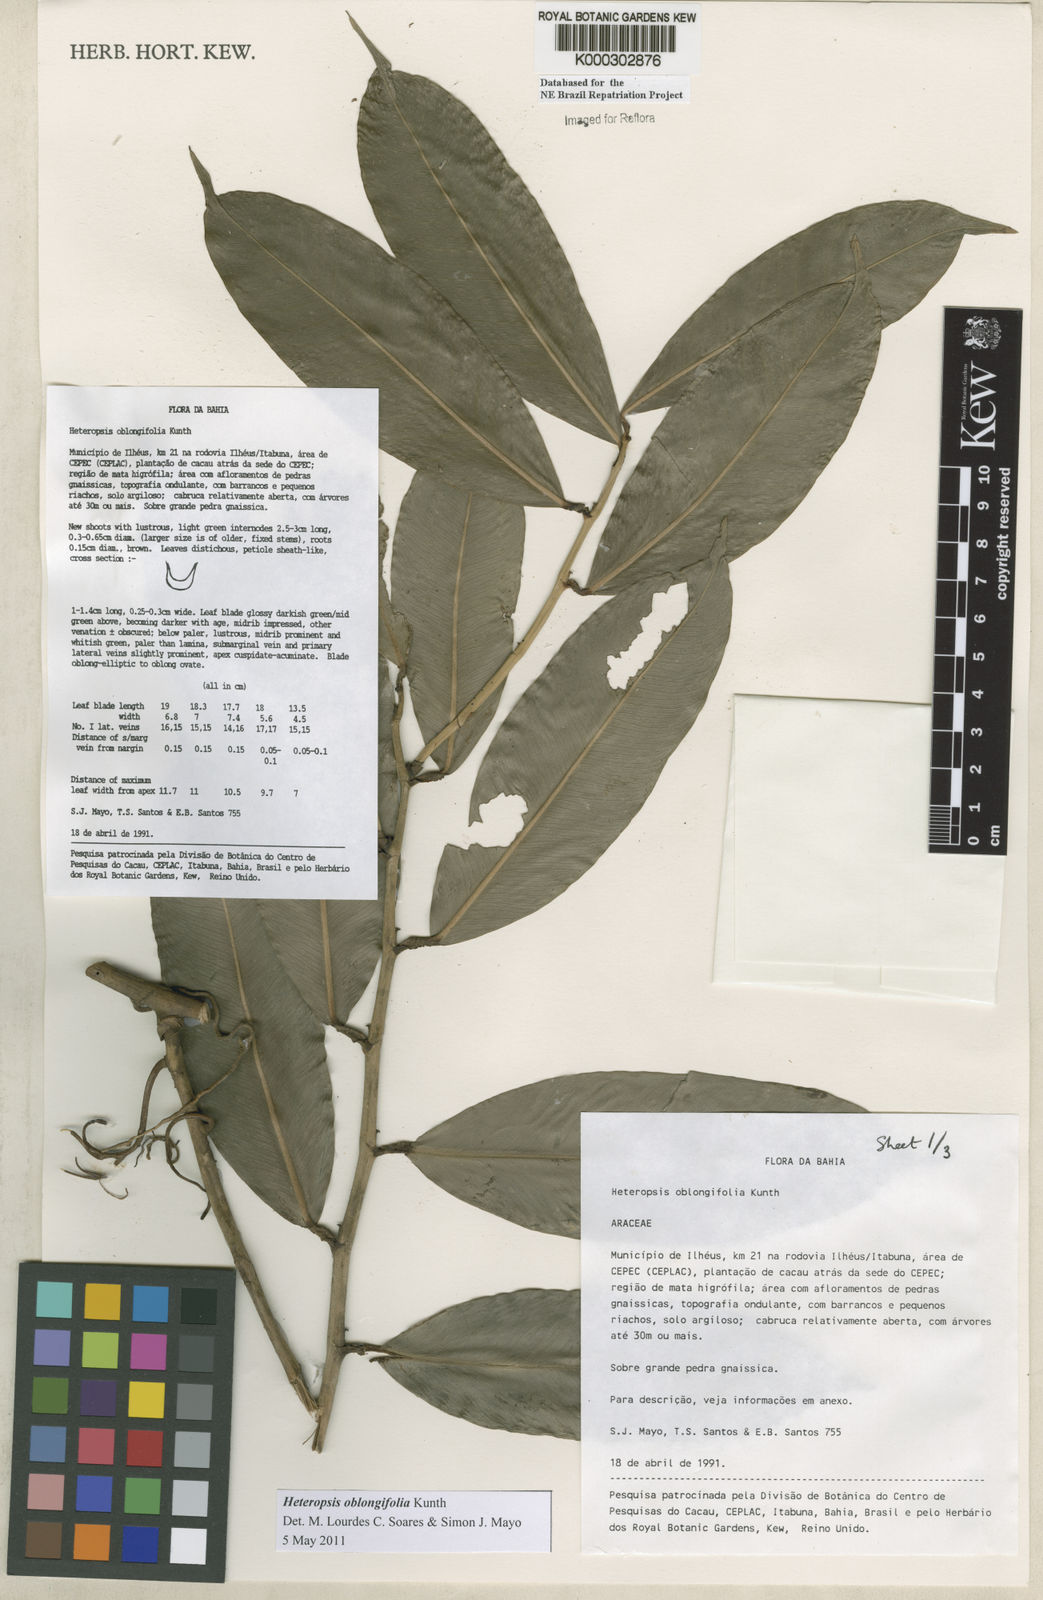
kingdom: Plantae
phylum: Tracheophyta
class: Liliopsida
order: Alismatales
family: Araceae
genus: Heteropsis
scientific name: Heteropsis oblongifolia
